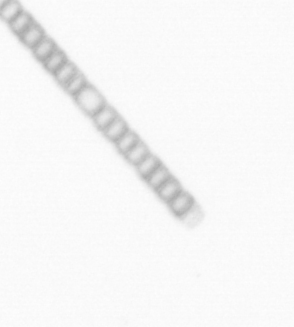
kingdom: Chromista
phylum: Ochrophyta
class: Bacillariophyceae
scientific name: Bacillariophyceae
